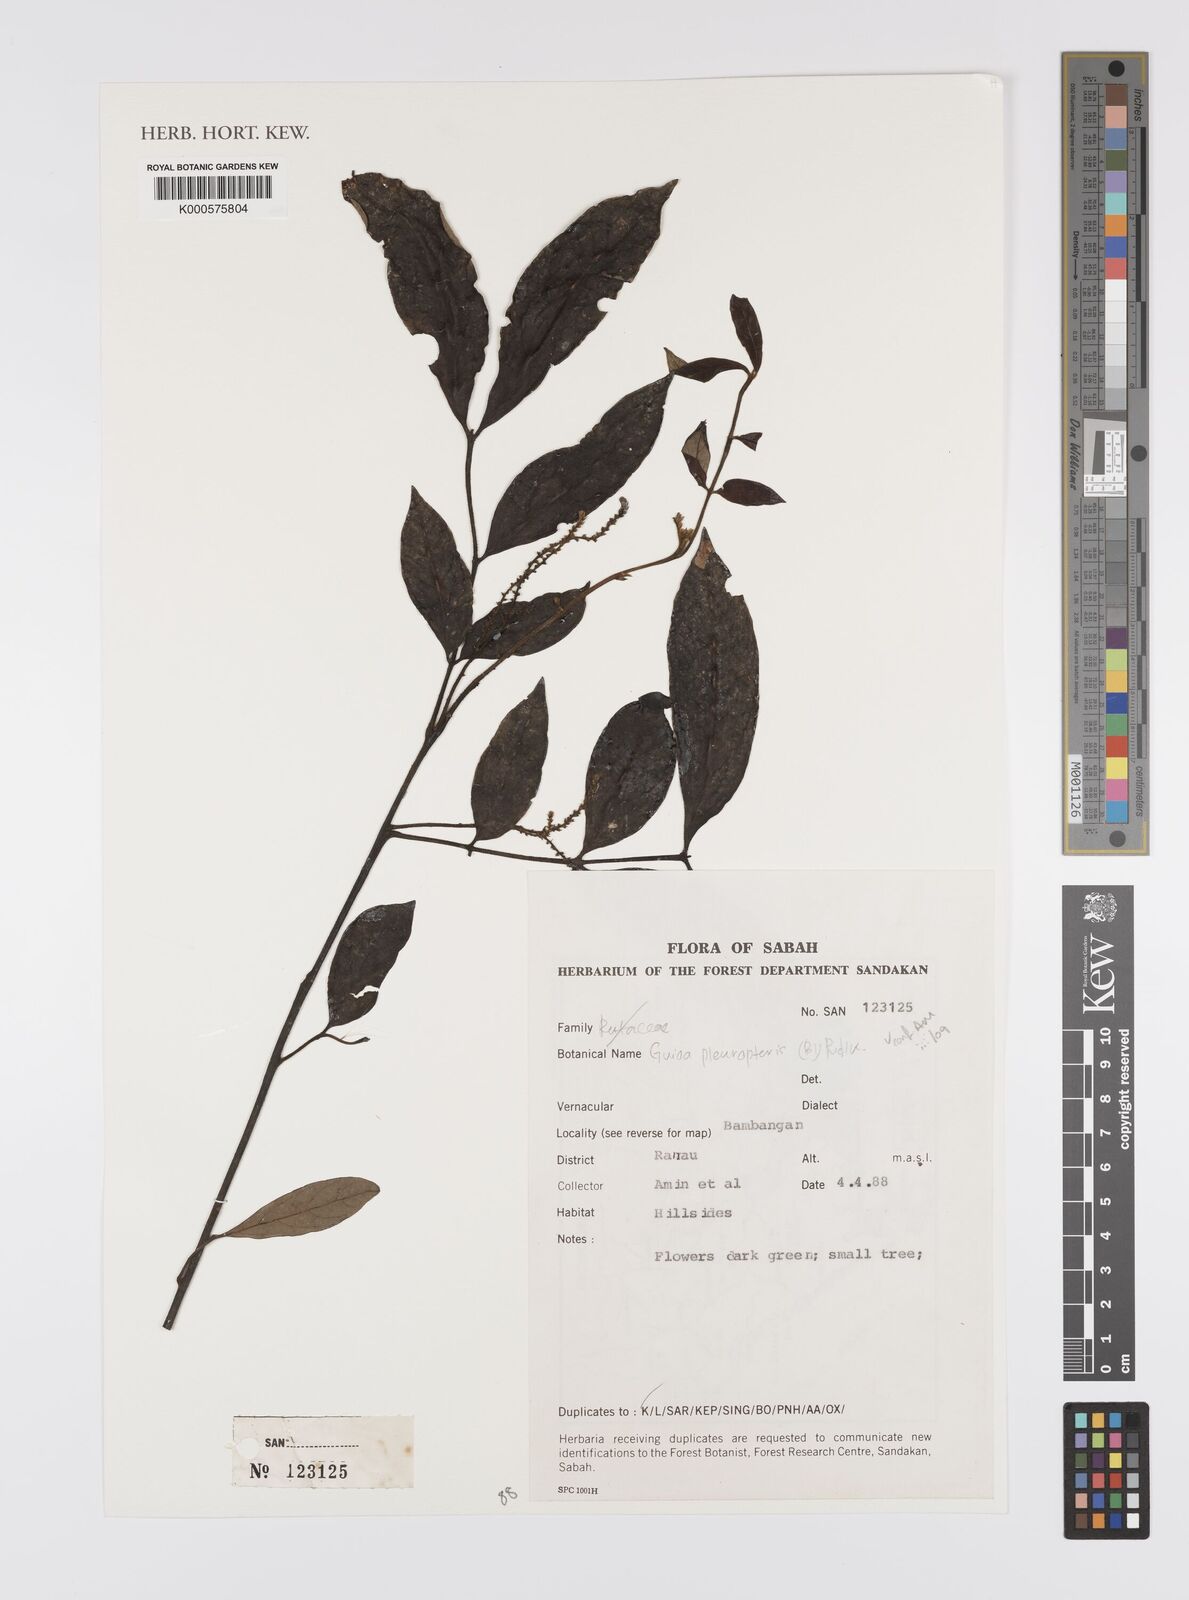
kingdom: Plantae
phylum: Tracheophyta
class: Magnoliopsida
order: Sapindales
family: Sapindaceae
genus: Guioa
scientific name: Guioa pleuropteris
